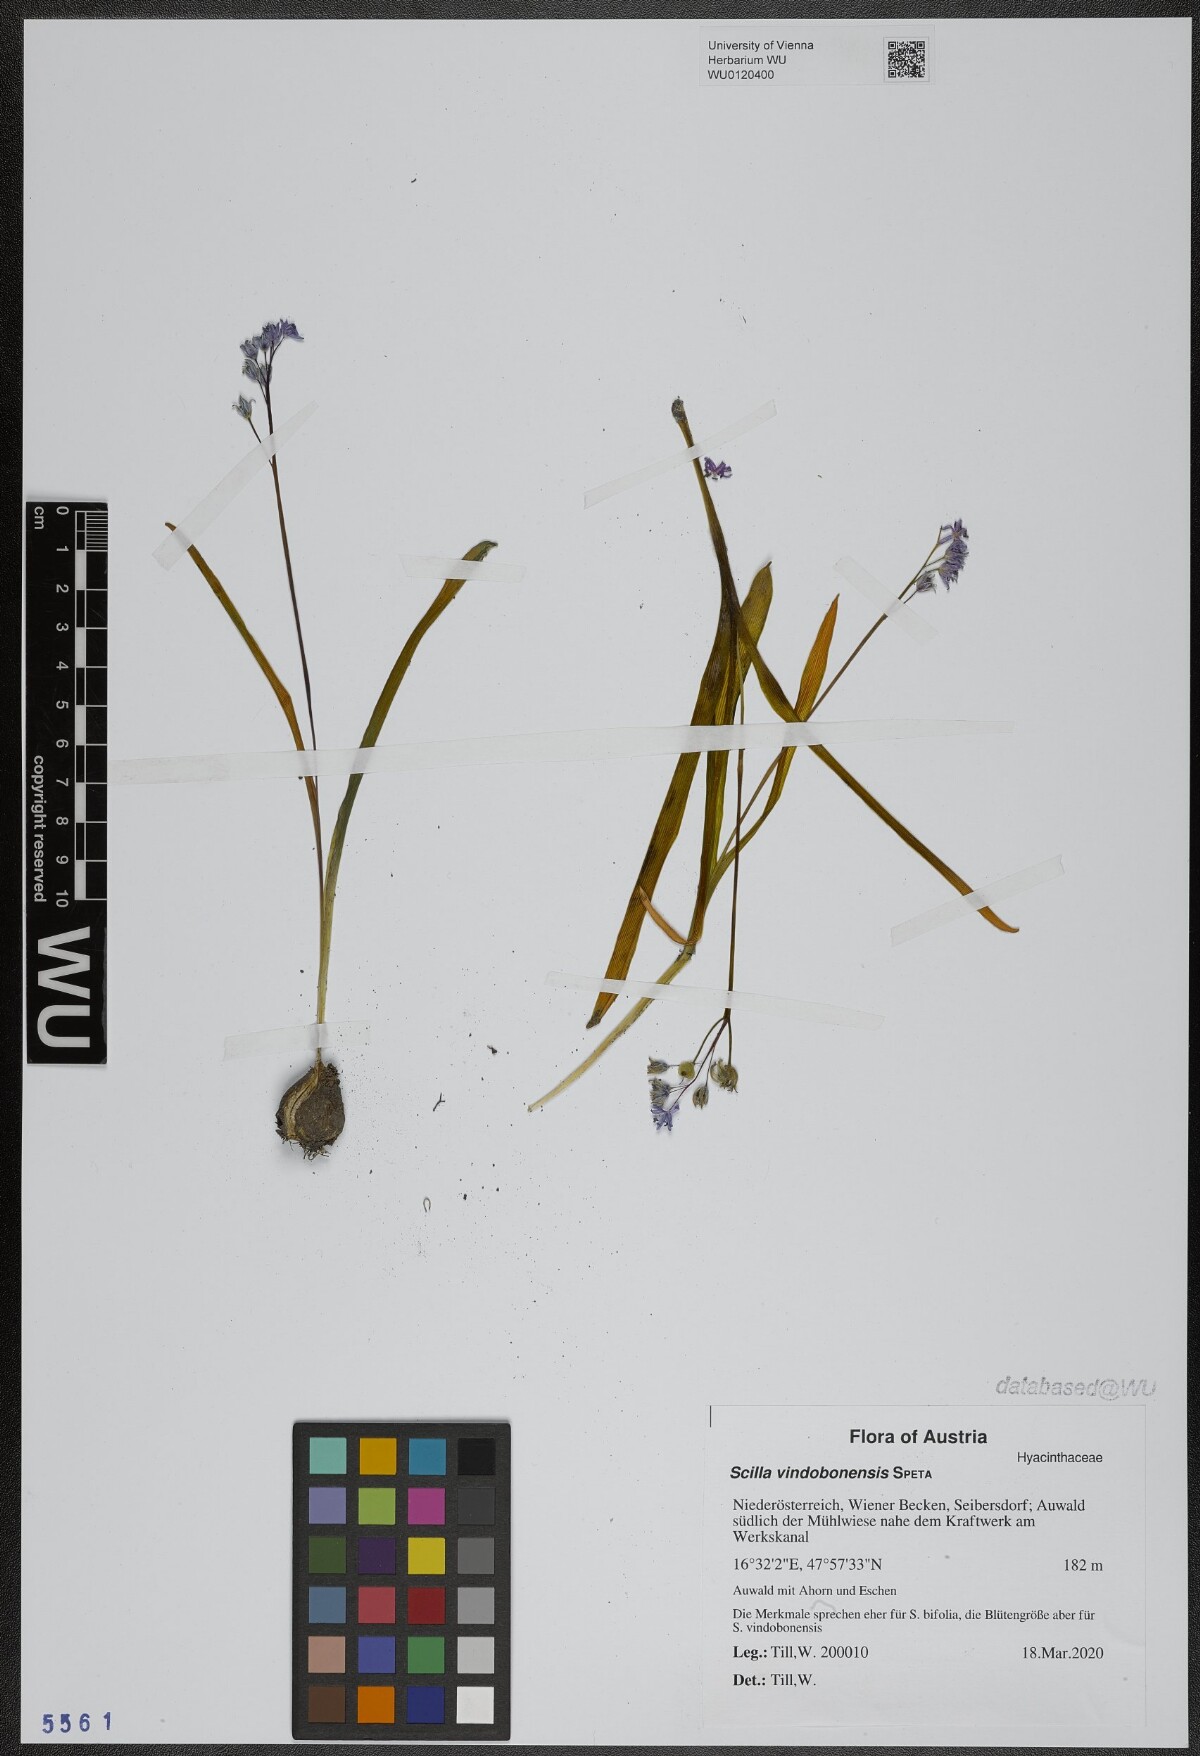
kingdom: Plantae
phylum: Tracheophyta
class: Liliopsida
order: Asparagales
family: Asparagaceae
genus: Scilla
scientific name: Scilla vindobonensis
